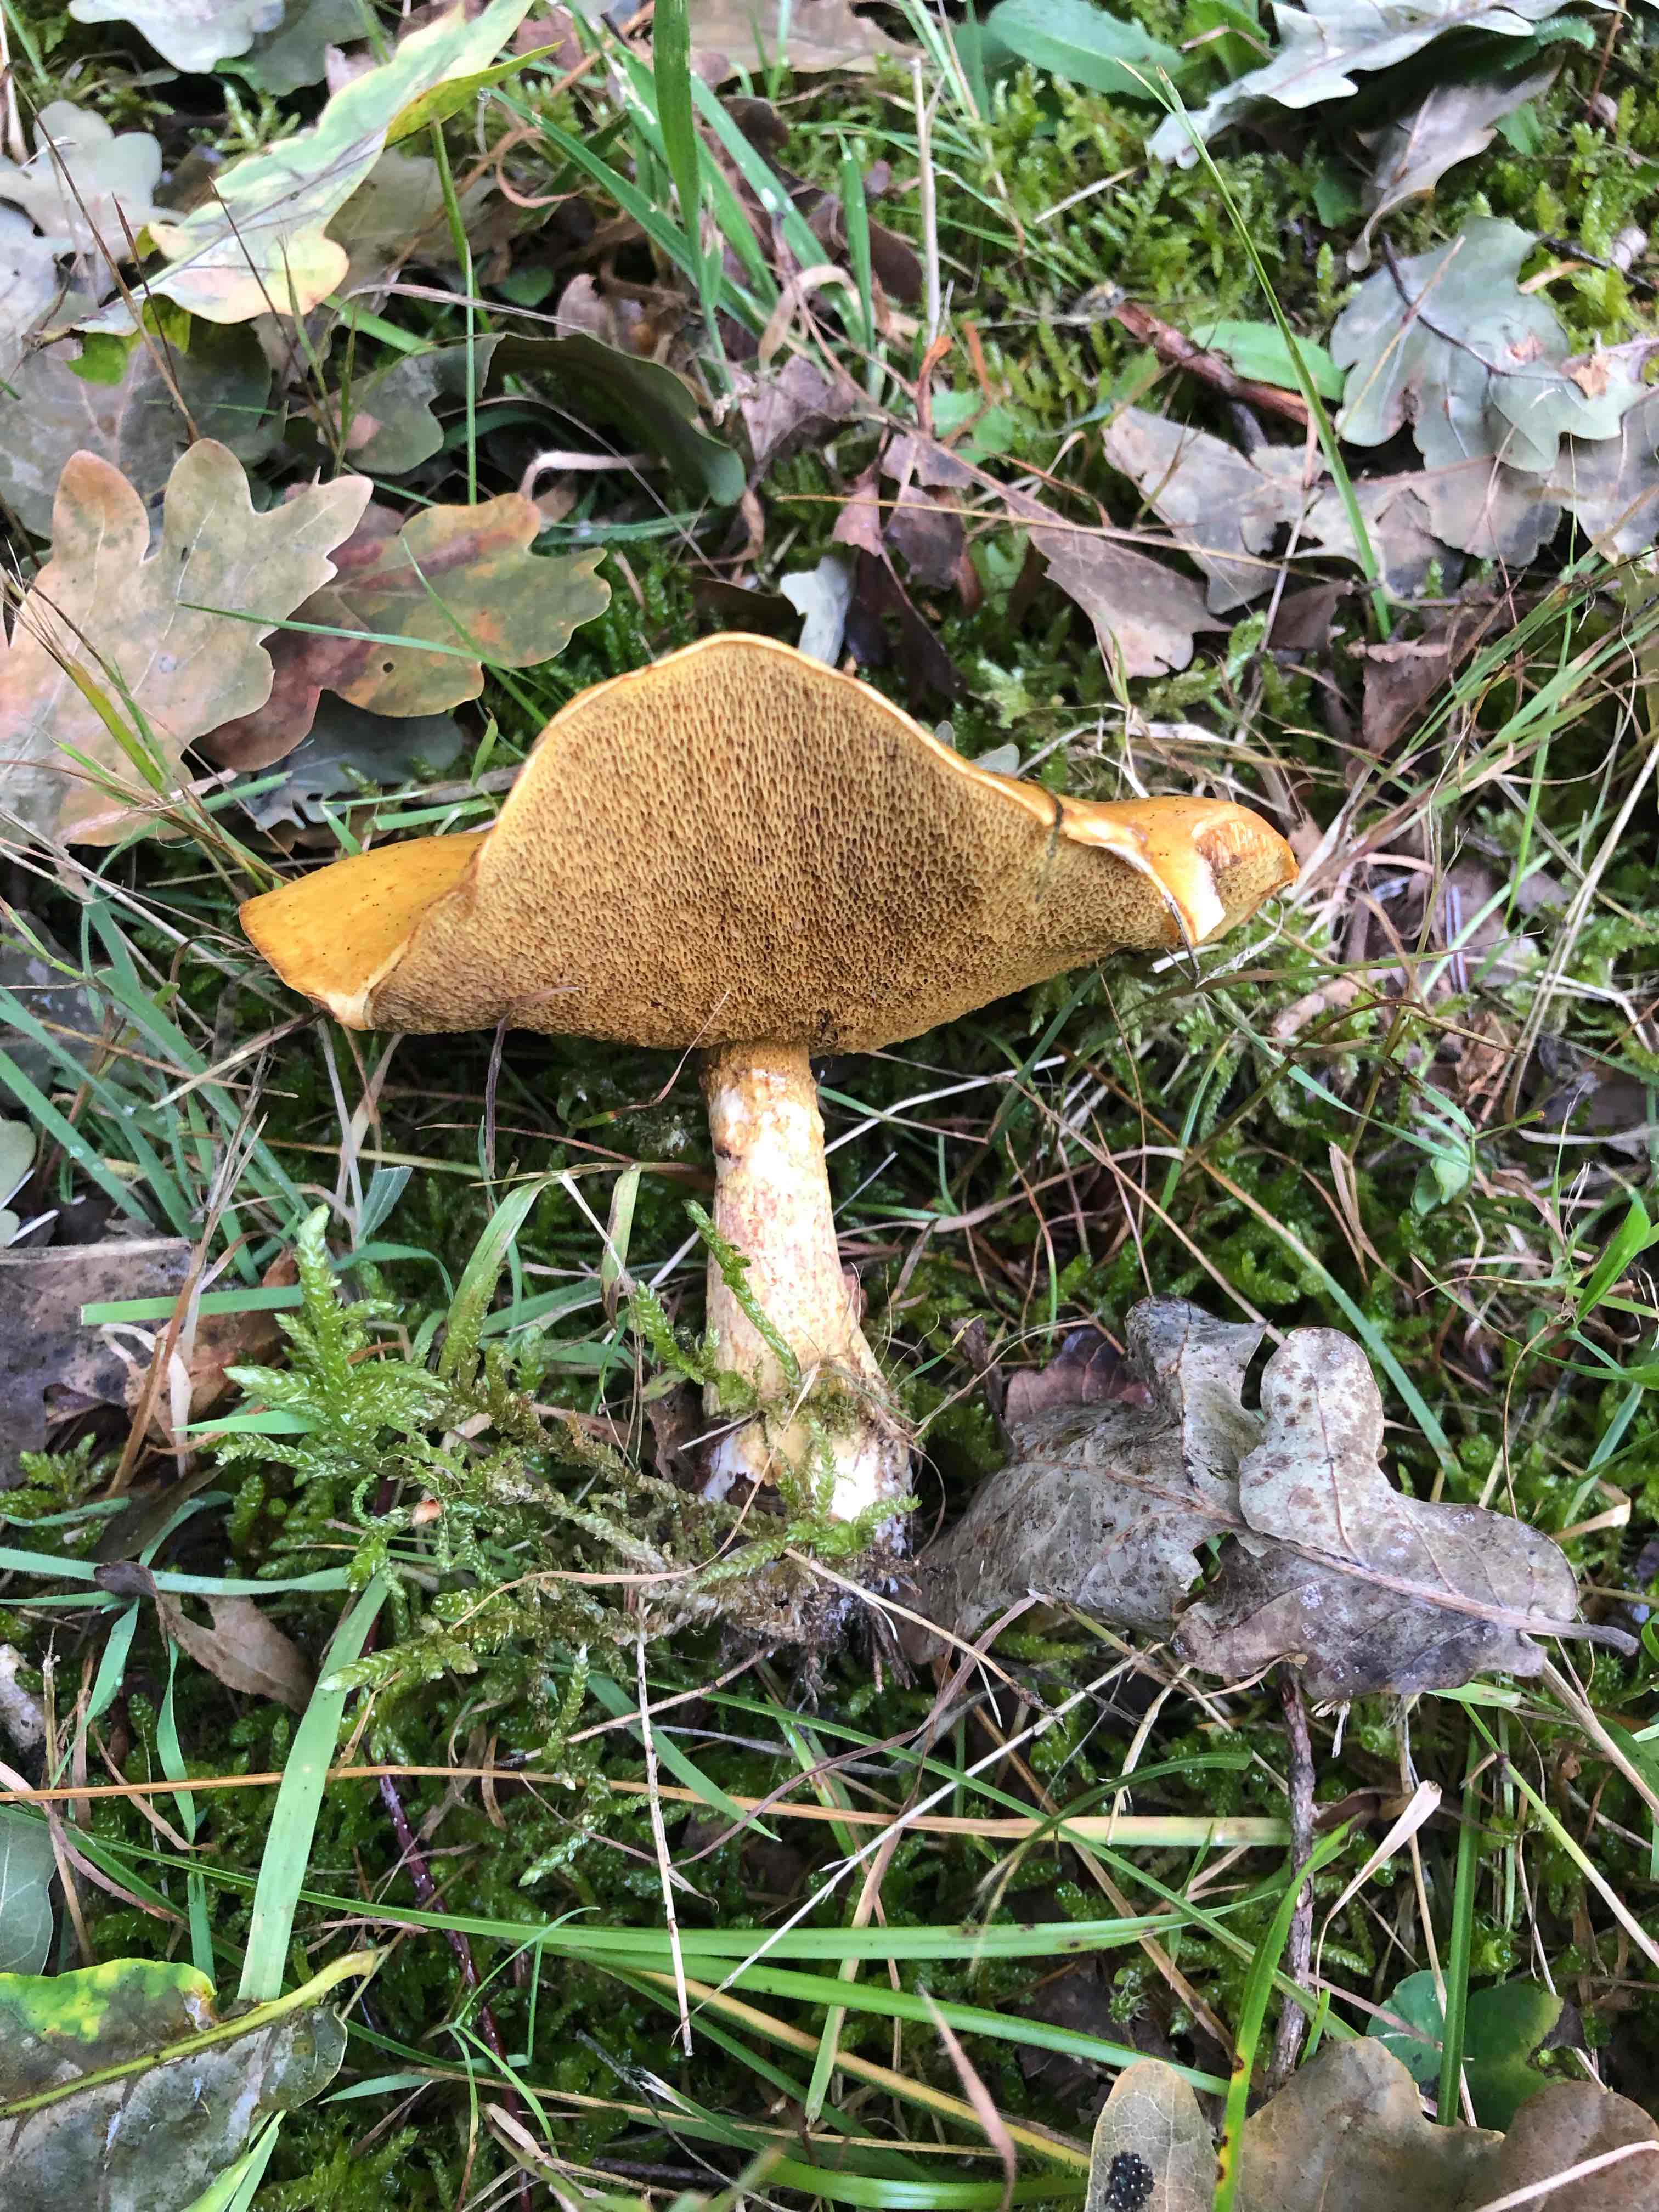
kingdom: Fungi
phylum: Basidiomycota
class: Agaricomycetes
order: Boletales
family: Suillaceae
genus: Suillus
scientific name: Suillus grevillei
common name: lærke-slimrørhat
